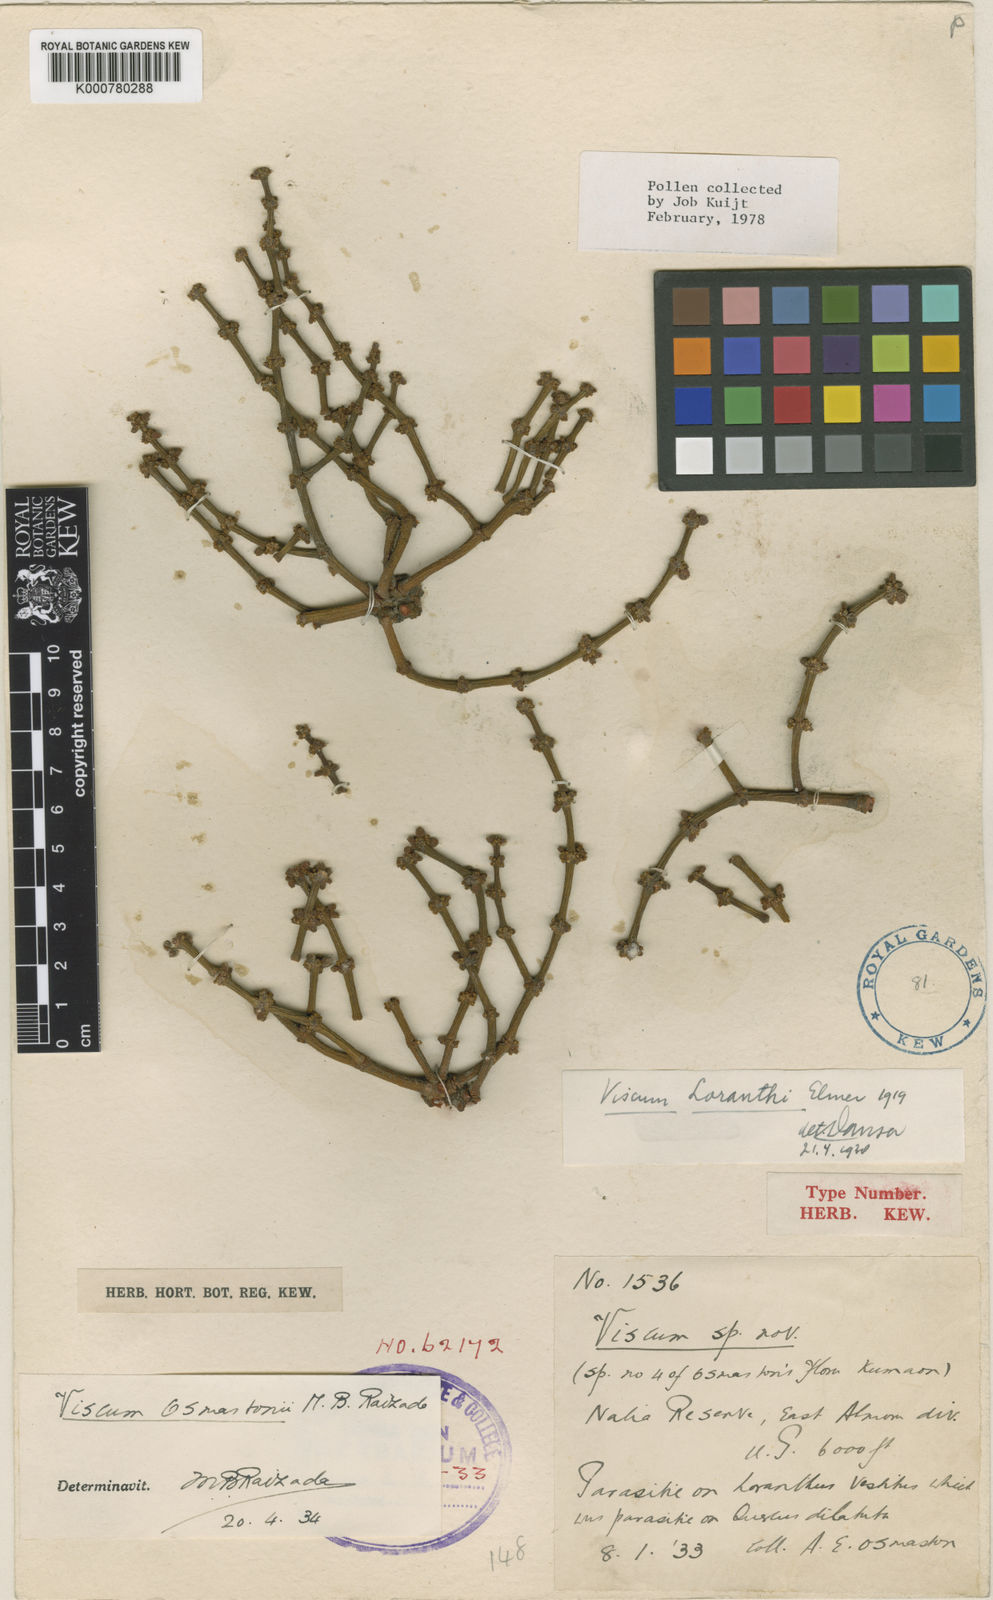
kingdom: Plantae
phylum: Tracheophyta
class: Magnoliopsida
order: Santalales
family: Viscaceae
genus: Viscum
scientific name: Viscum loranthi
